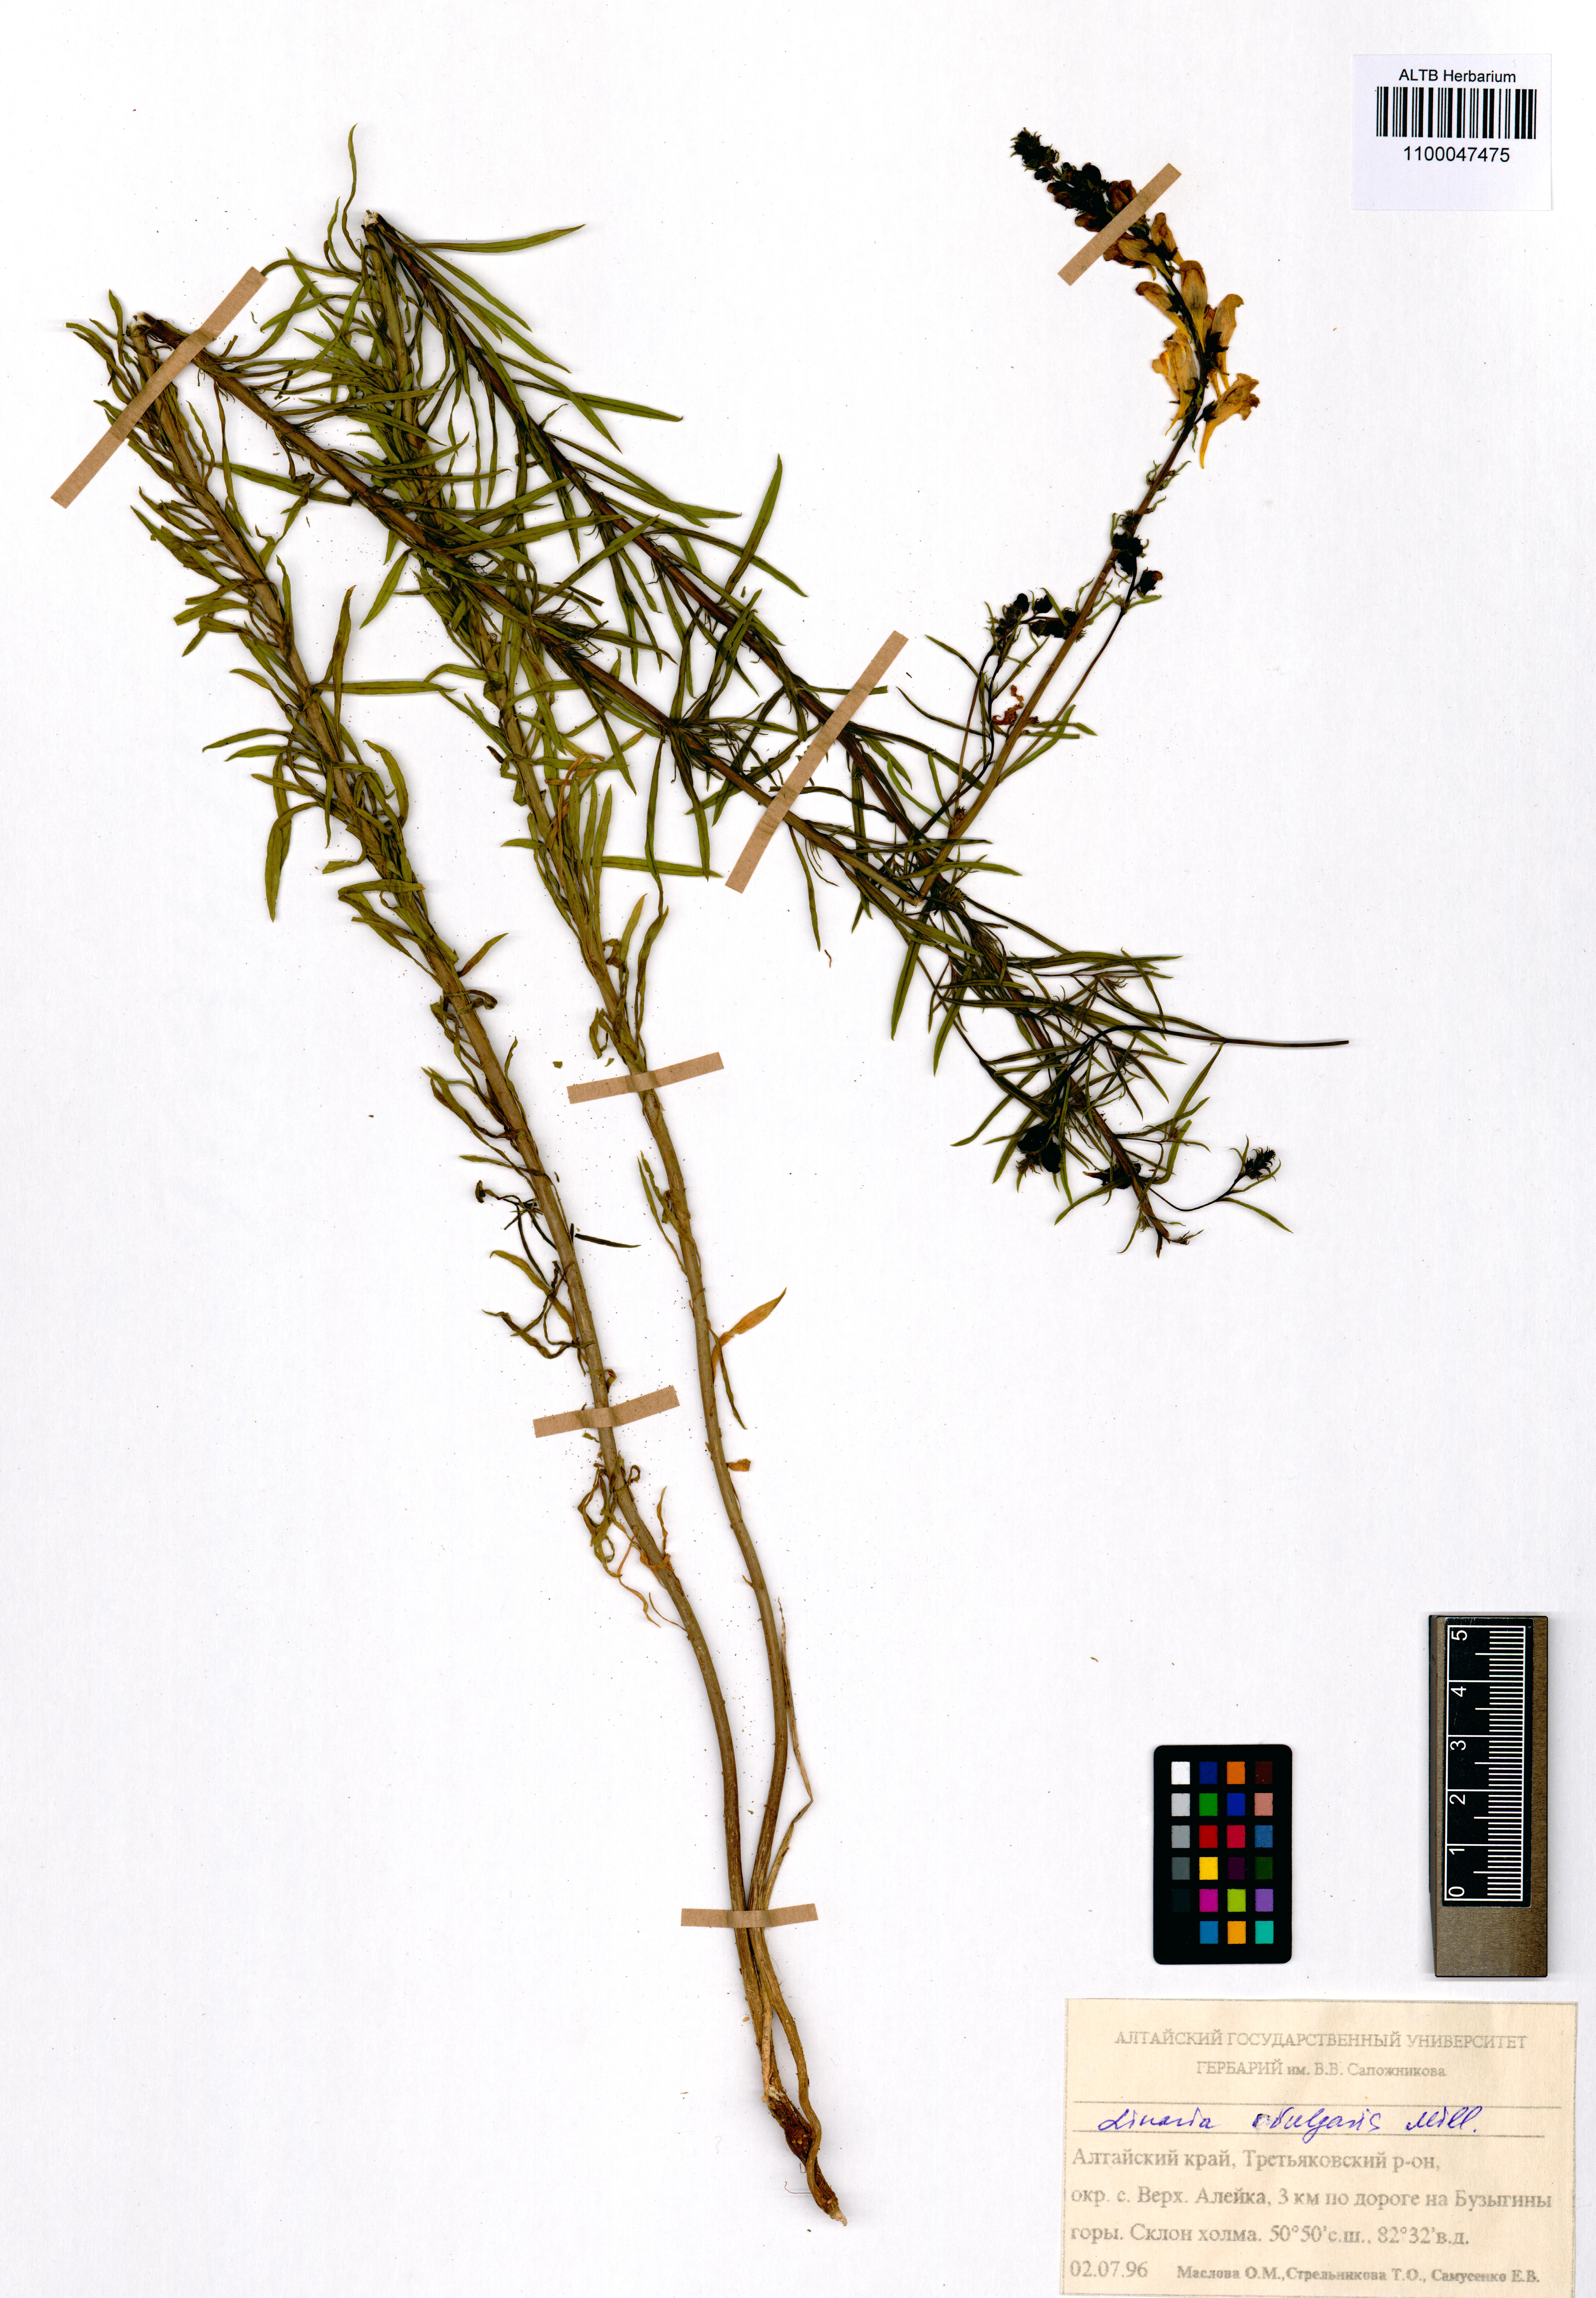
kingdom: Plantae
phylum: Tracheophyta
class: Magnoliopsida
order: Lamiales
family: Plantaginaceae
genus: Linaria
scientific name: Linaria vulgaris
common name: Butter and eggs
